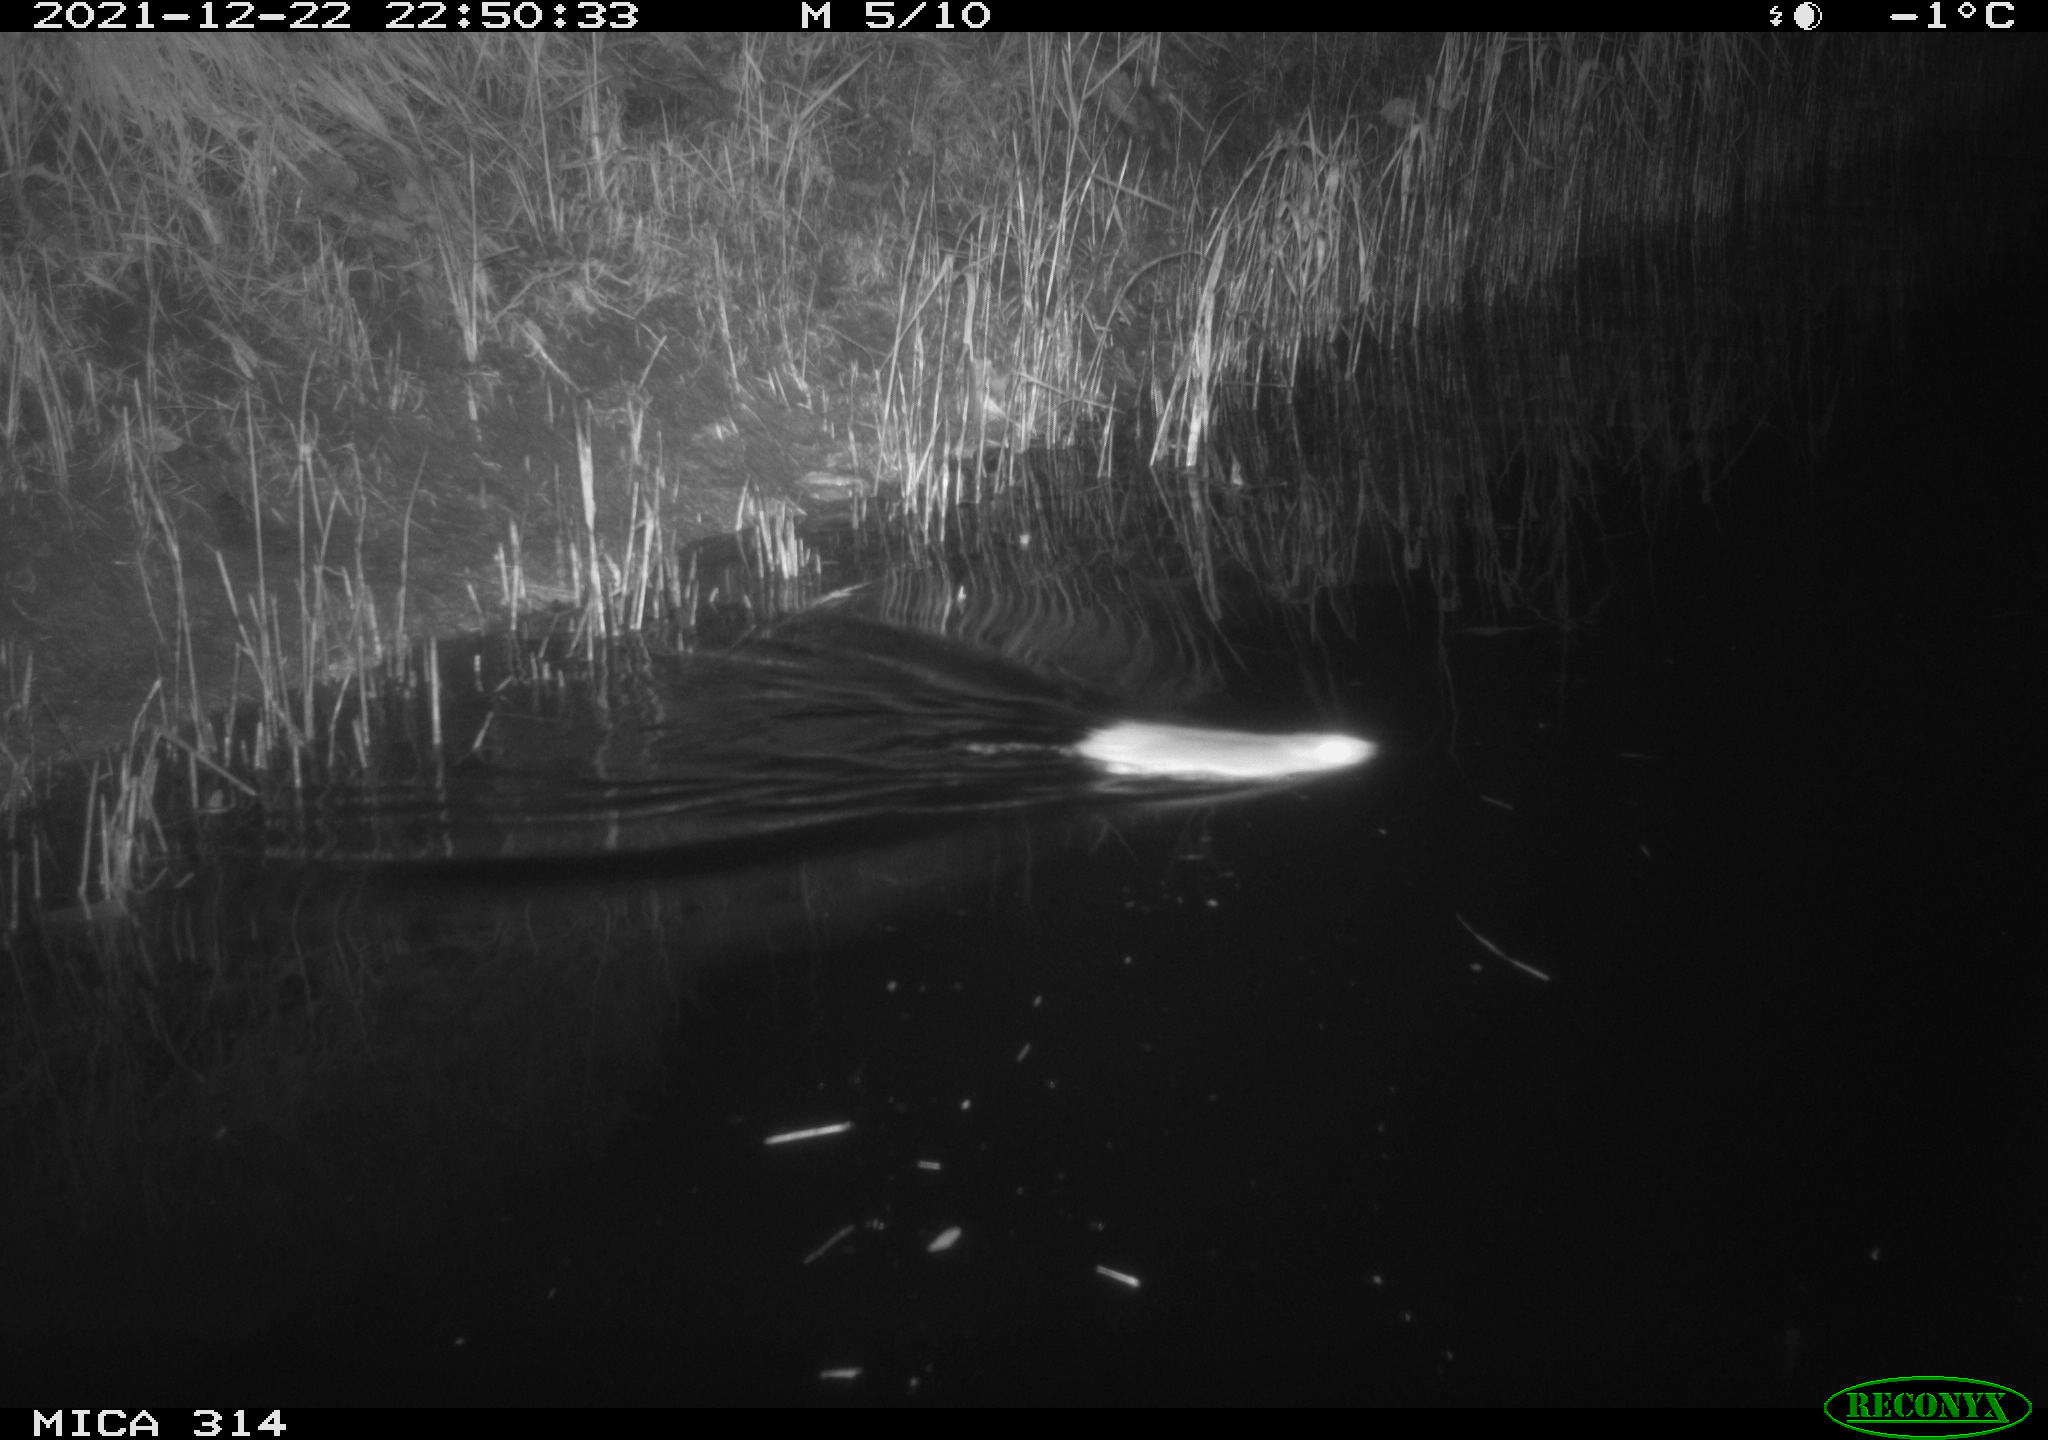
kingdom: Animalia
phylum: Chordata
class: Mammalia
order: Rodentia
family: Muridae
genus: Rattus
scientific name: Rattus norvegicus
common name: Brown rat
